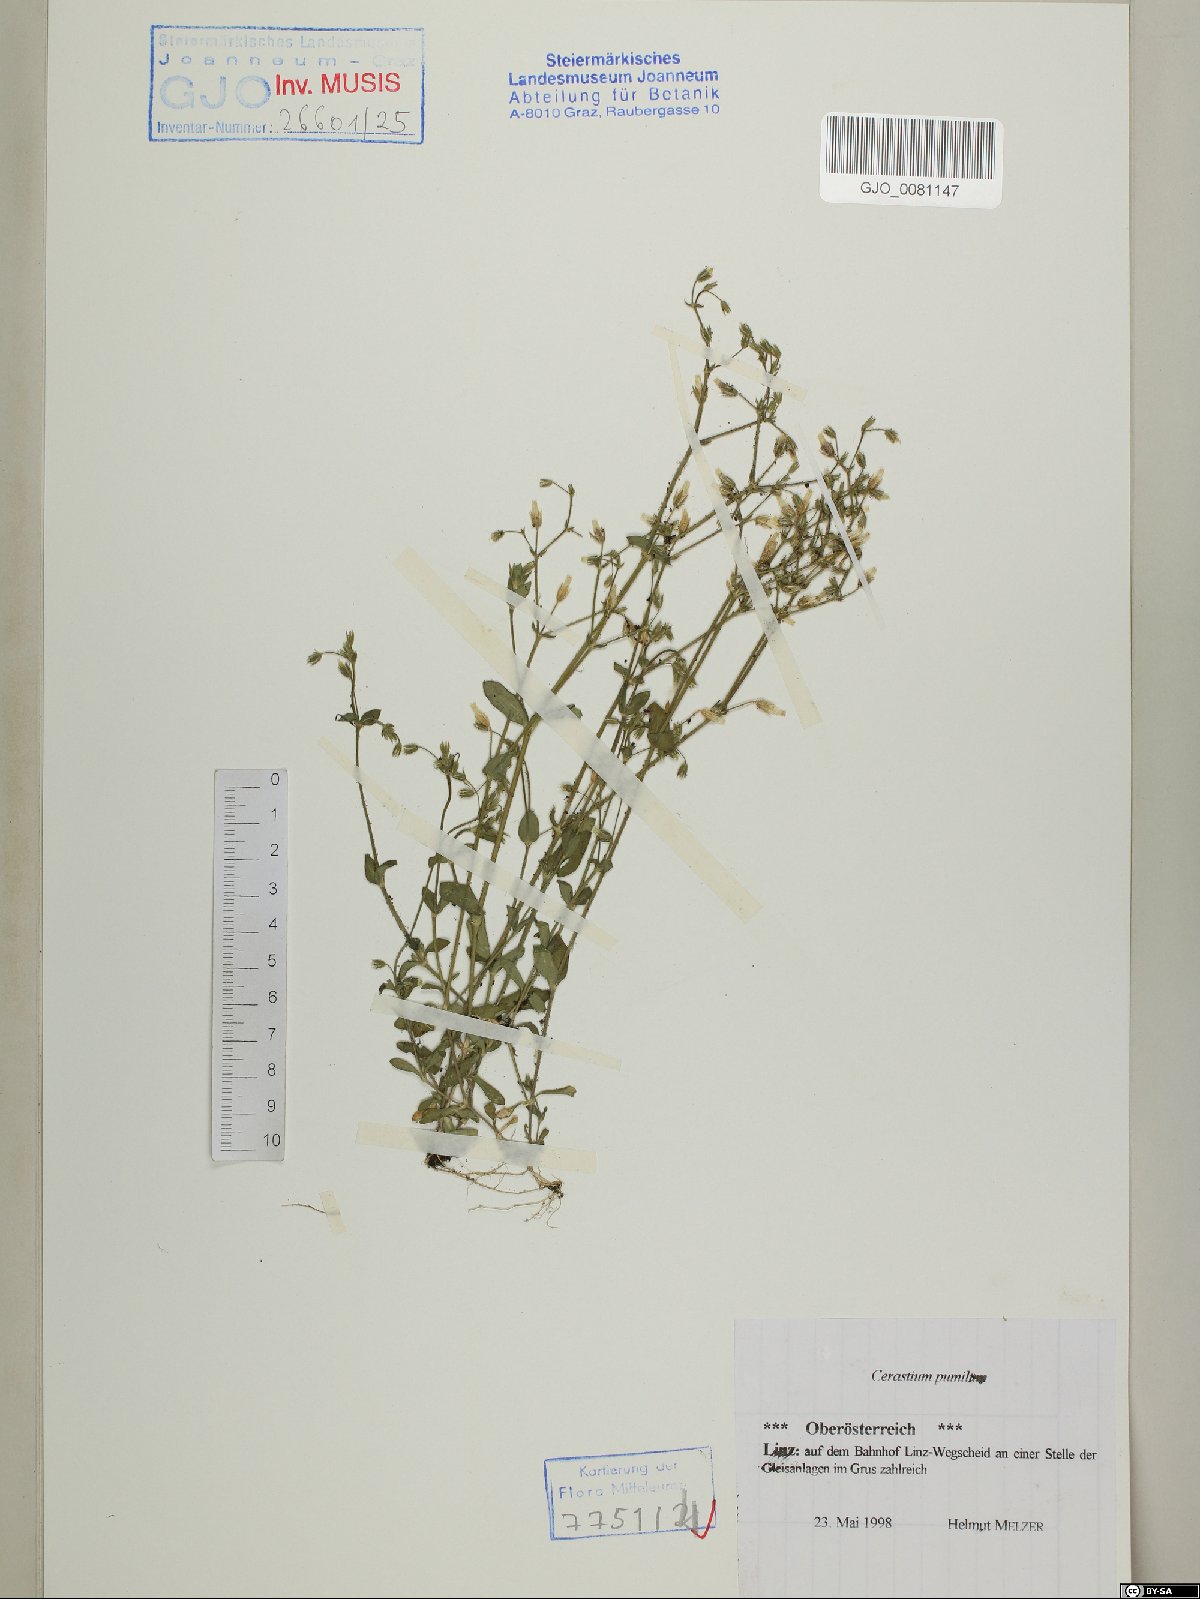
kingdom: Plantae
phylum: Tracheophyta
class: Magnoliopsida
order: Caryophyllales
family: Caryophyllaceae
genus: Cerastium
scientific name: Cerastium pumilum
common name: Dwarf mouse-ear
